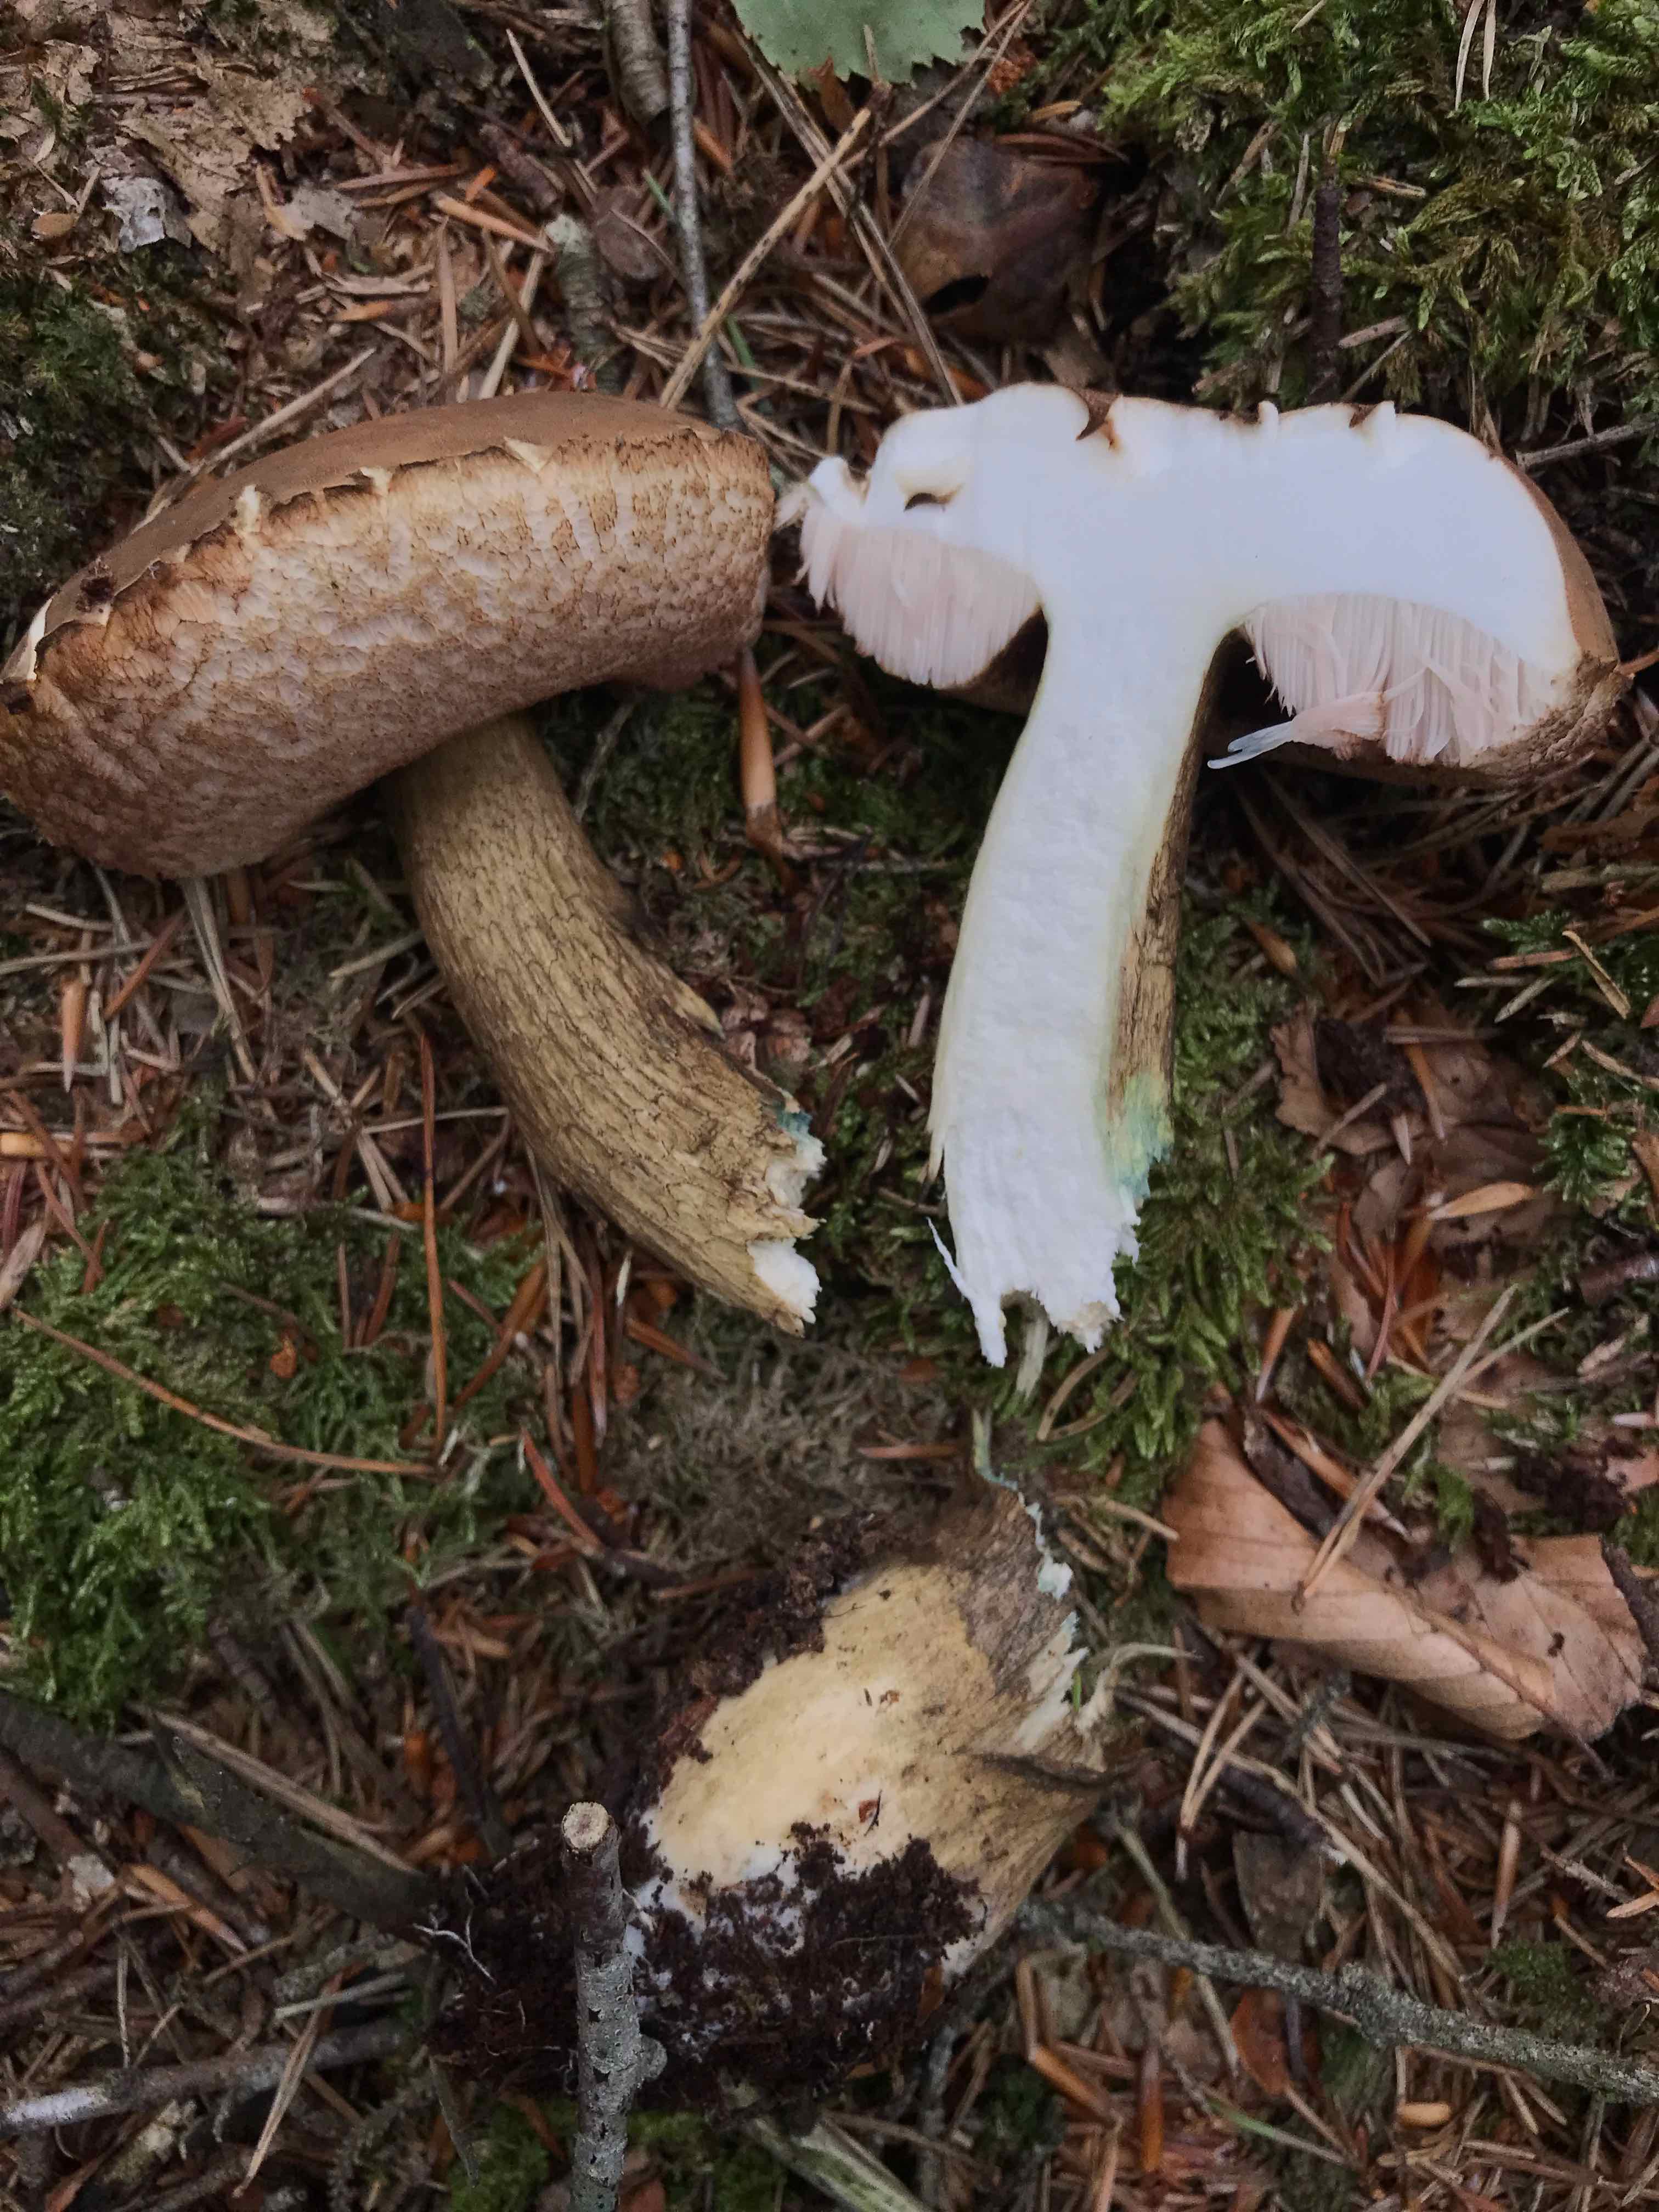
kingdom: Fungi
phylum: Basidiomycota
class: Agaricomycetes
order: Boletales
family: Boletaceae
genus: Tylopilus
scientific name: Tylopilus felleus
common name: galderørhat
